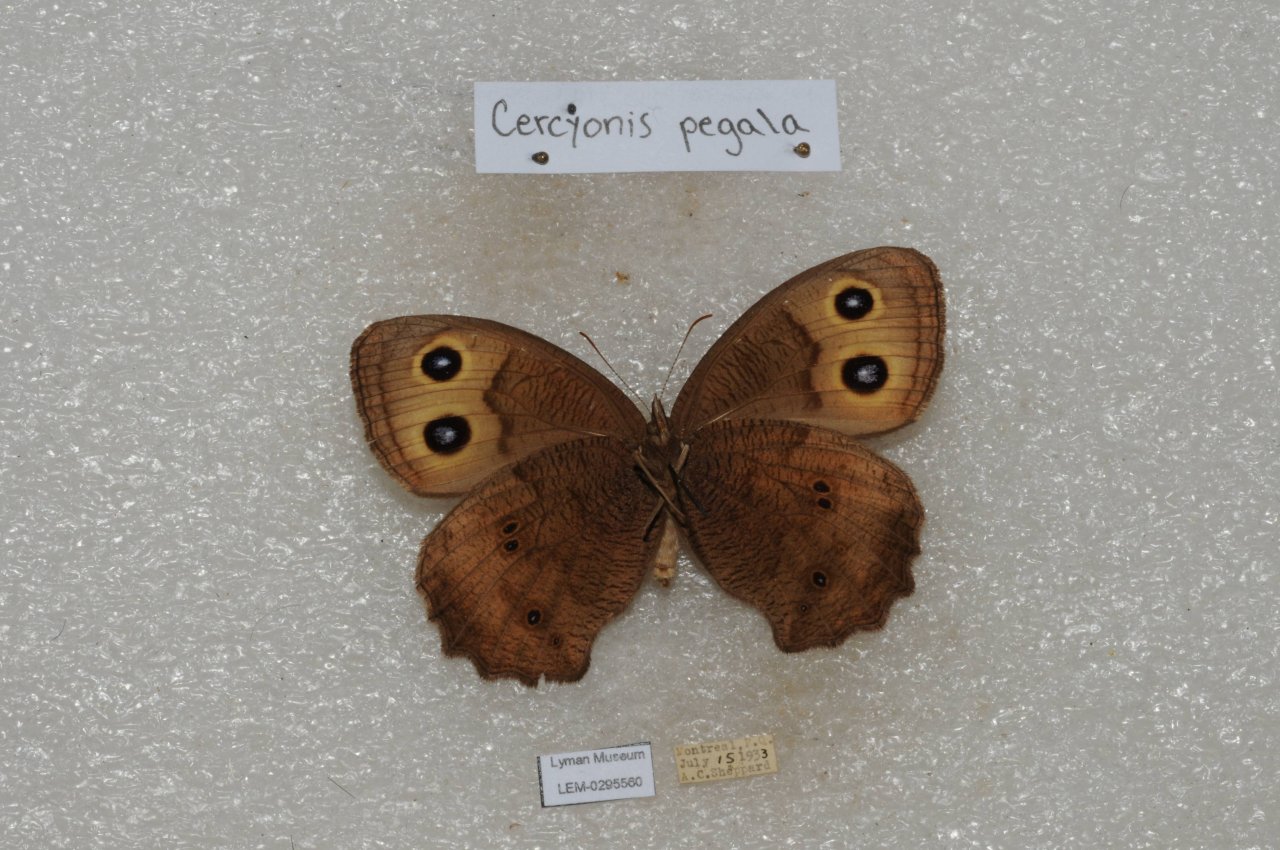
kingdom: Animalia
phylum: Arthropoda
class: Insecta
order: Lepidoptera
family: Nymphalidae
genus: Cercyonis
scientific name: Cercyonis pegala
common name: Common Wood-Nymph
